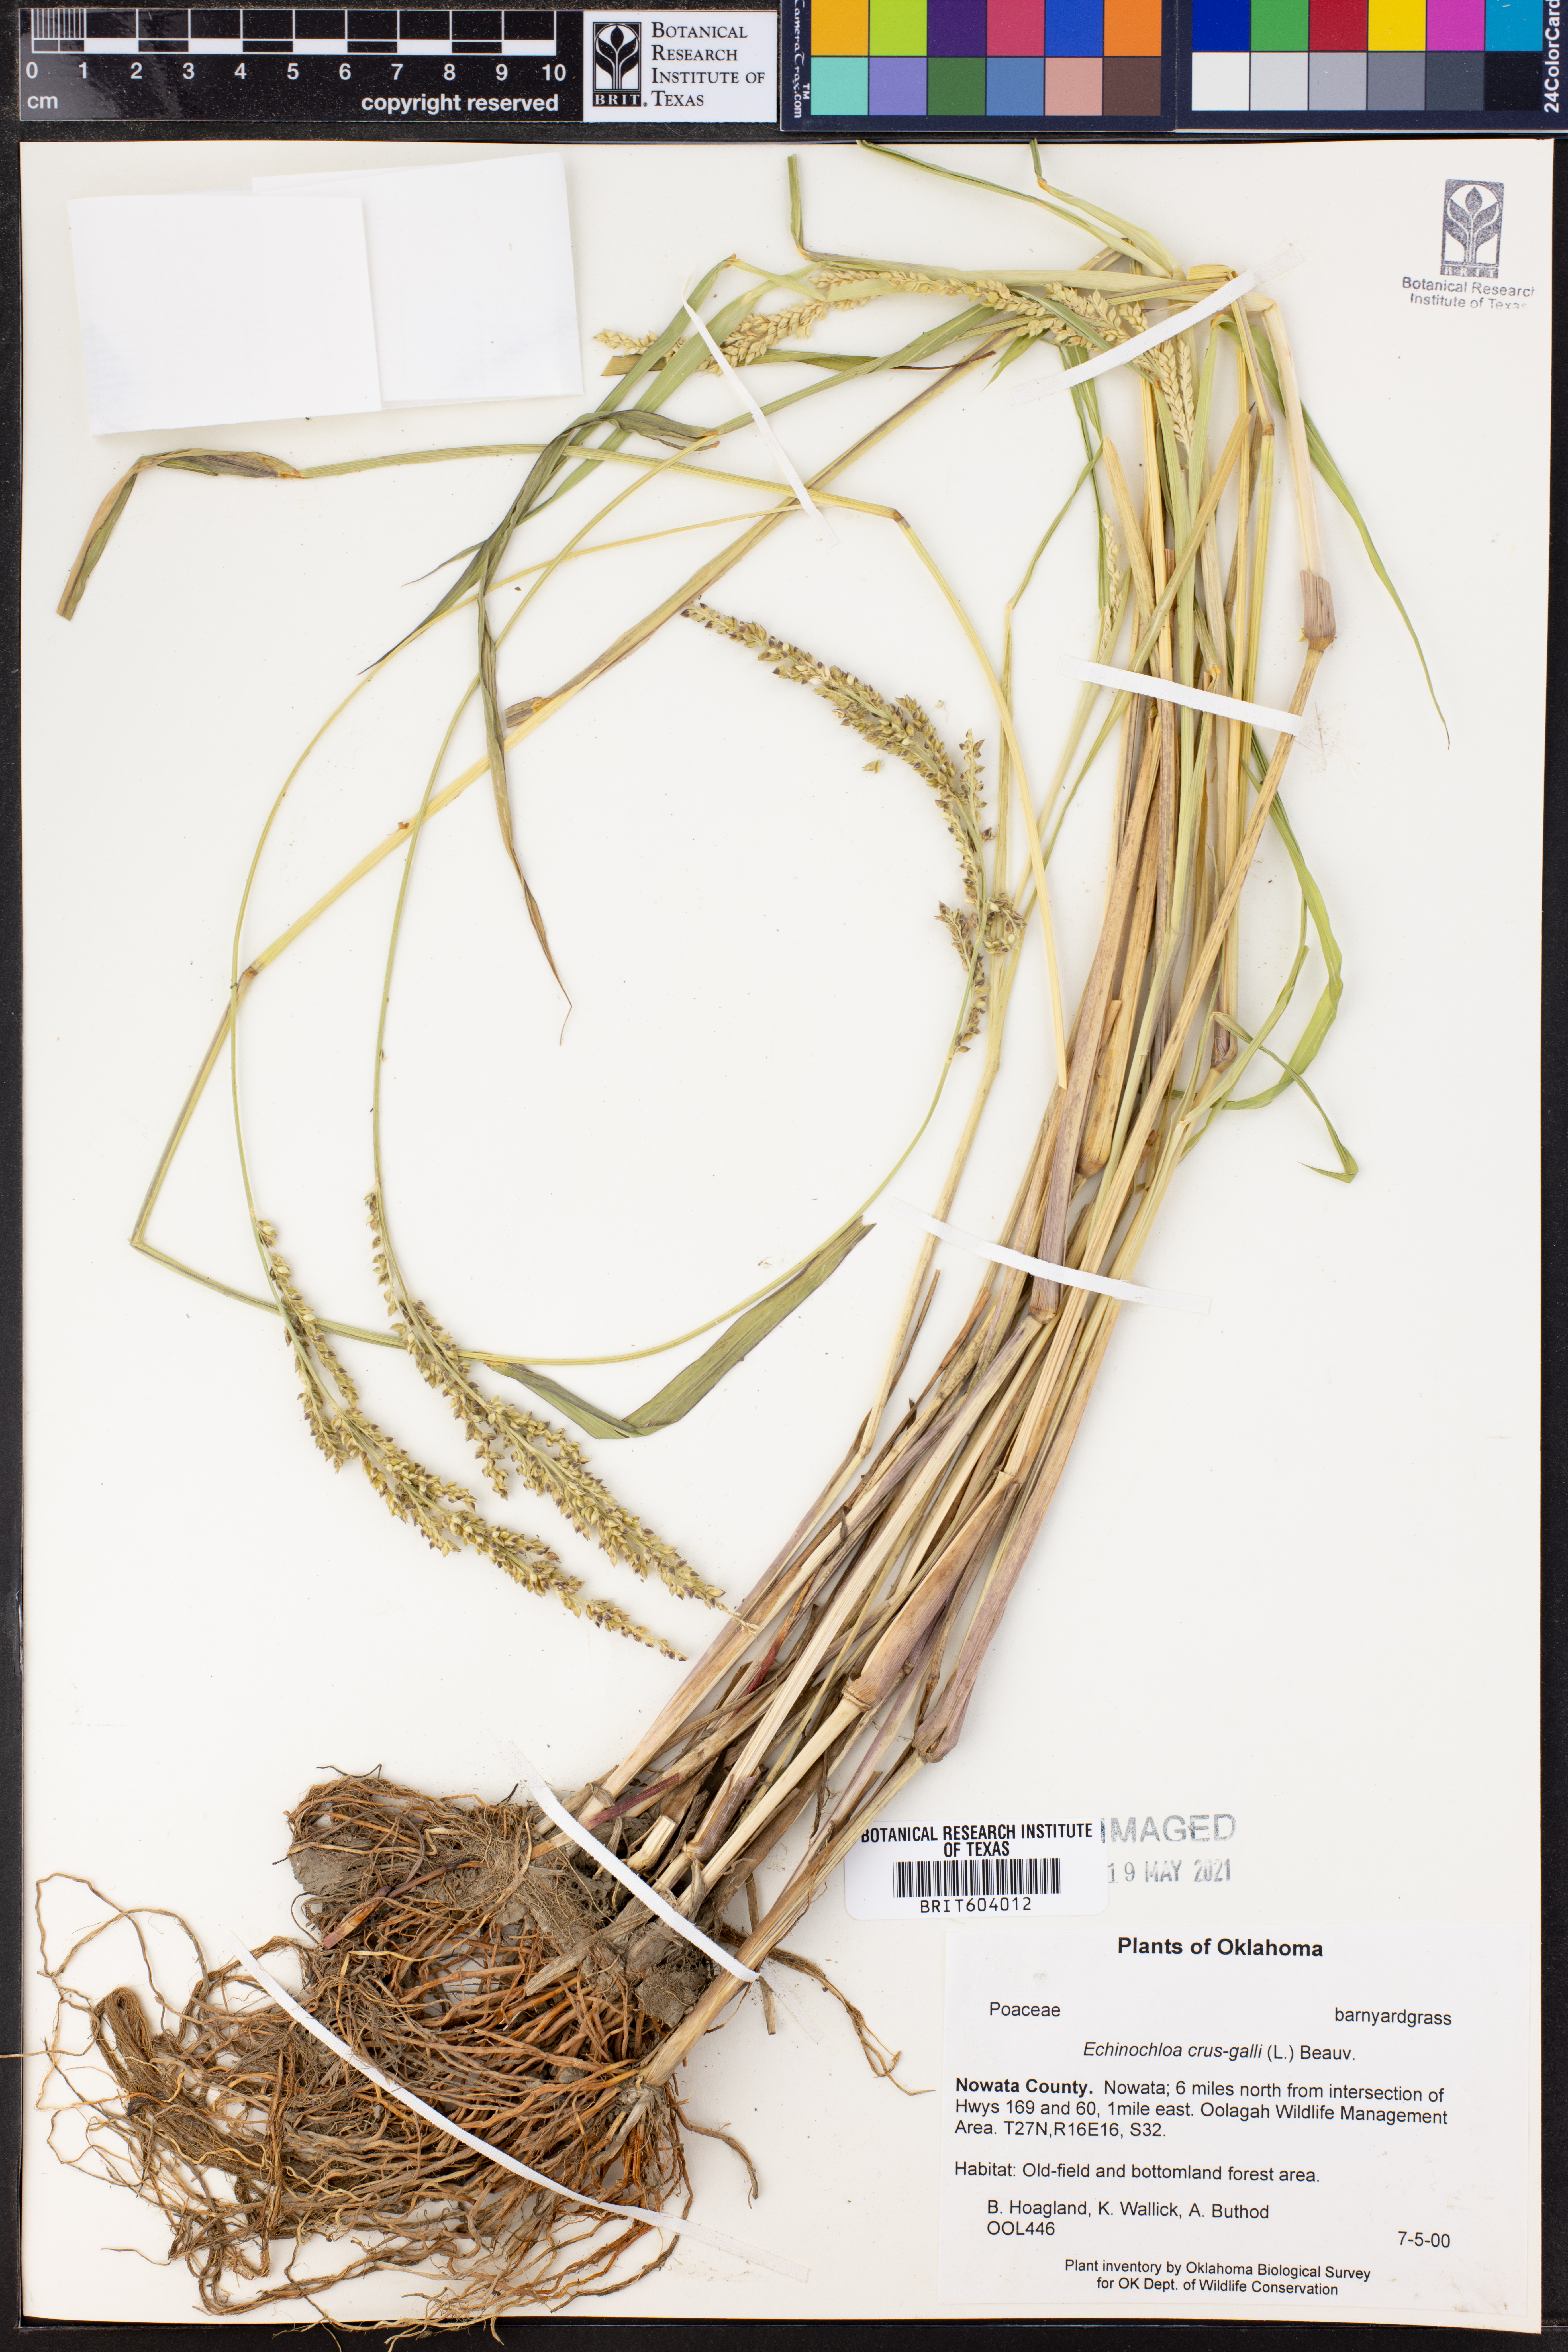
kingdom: Plantae
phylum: Tracheophyta
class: Liliopsida
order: Poales
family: Poaceae
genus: Echinochloa
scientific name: Echinochloa crus-galli
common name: Cockspur
